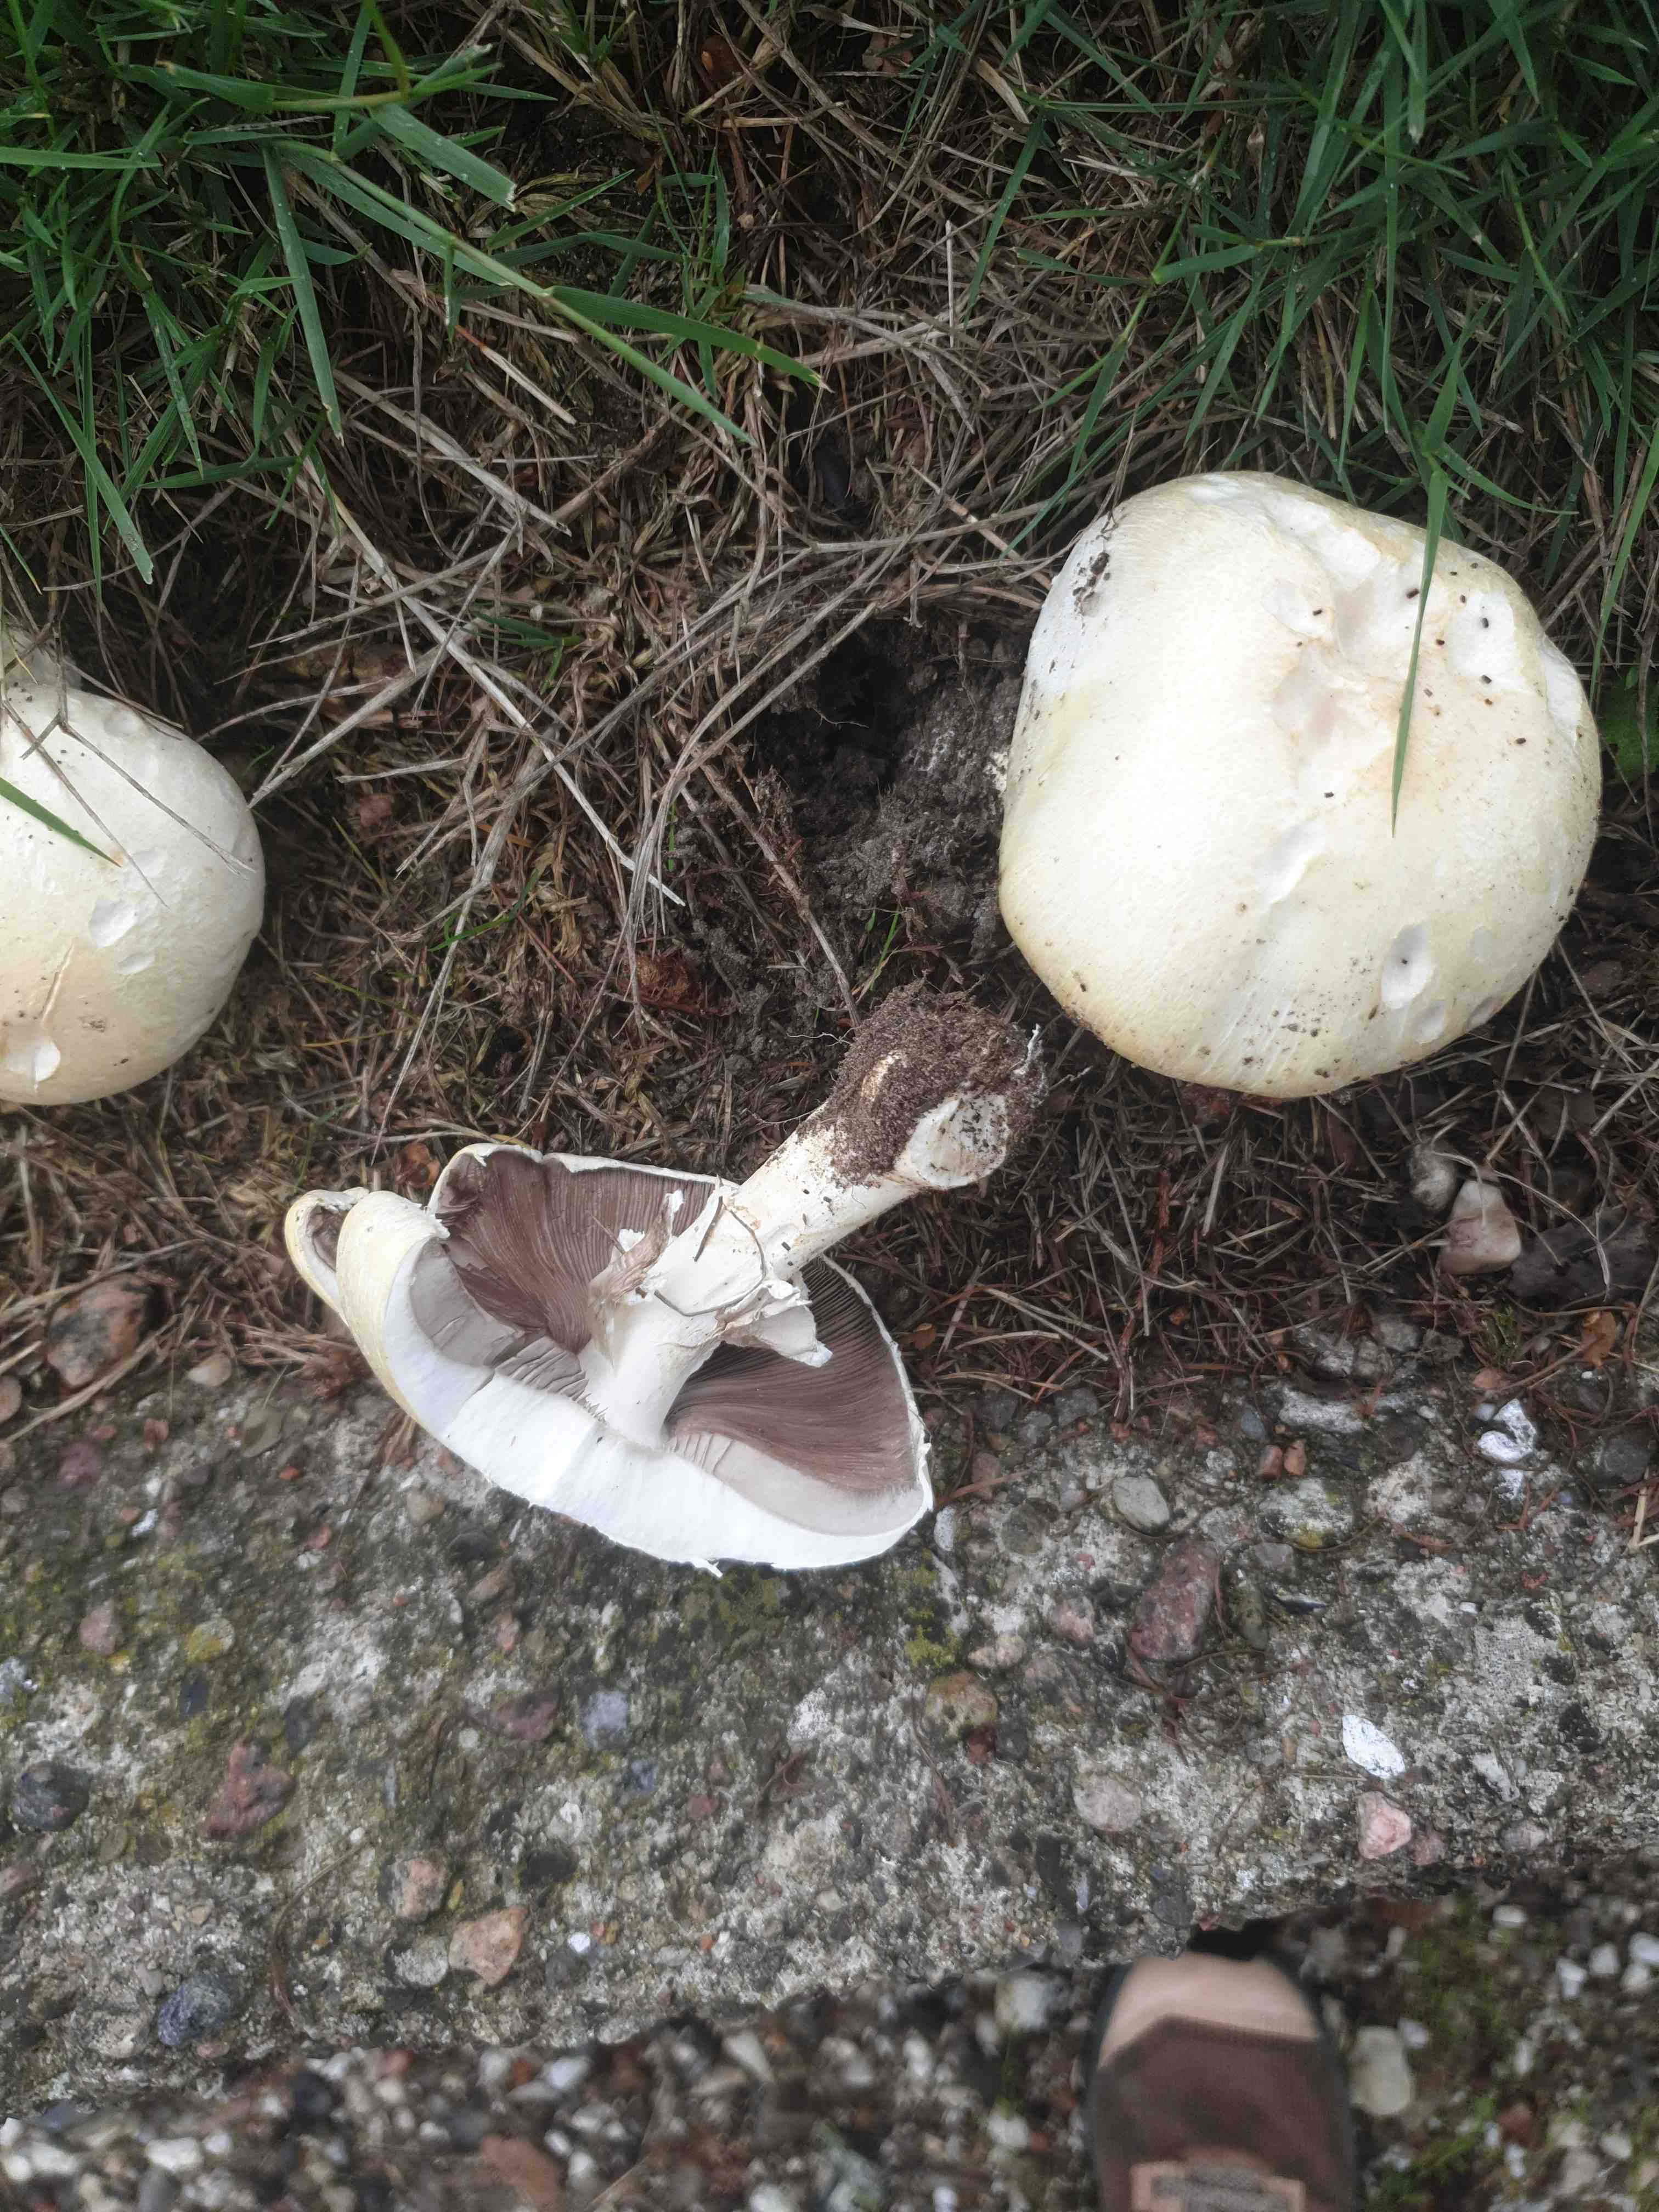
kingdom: Fungi
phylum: Basidiomycota
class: Agaricomycetes
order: Agaricales
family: Agaricaceae
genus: Agaricus
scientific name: Agaricus arvensis
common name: ager-champignon
